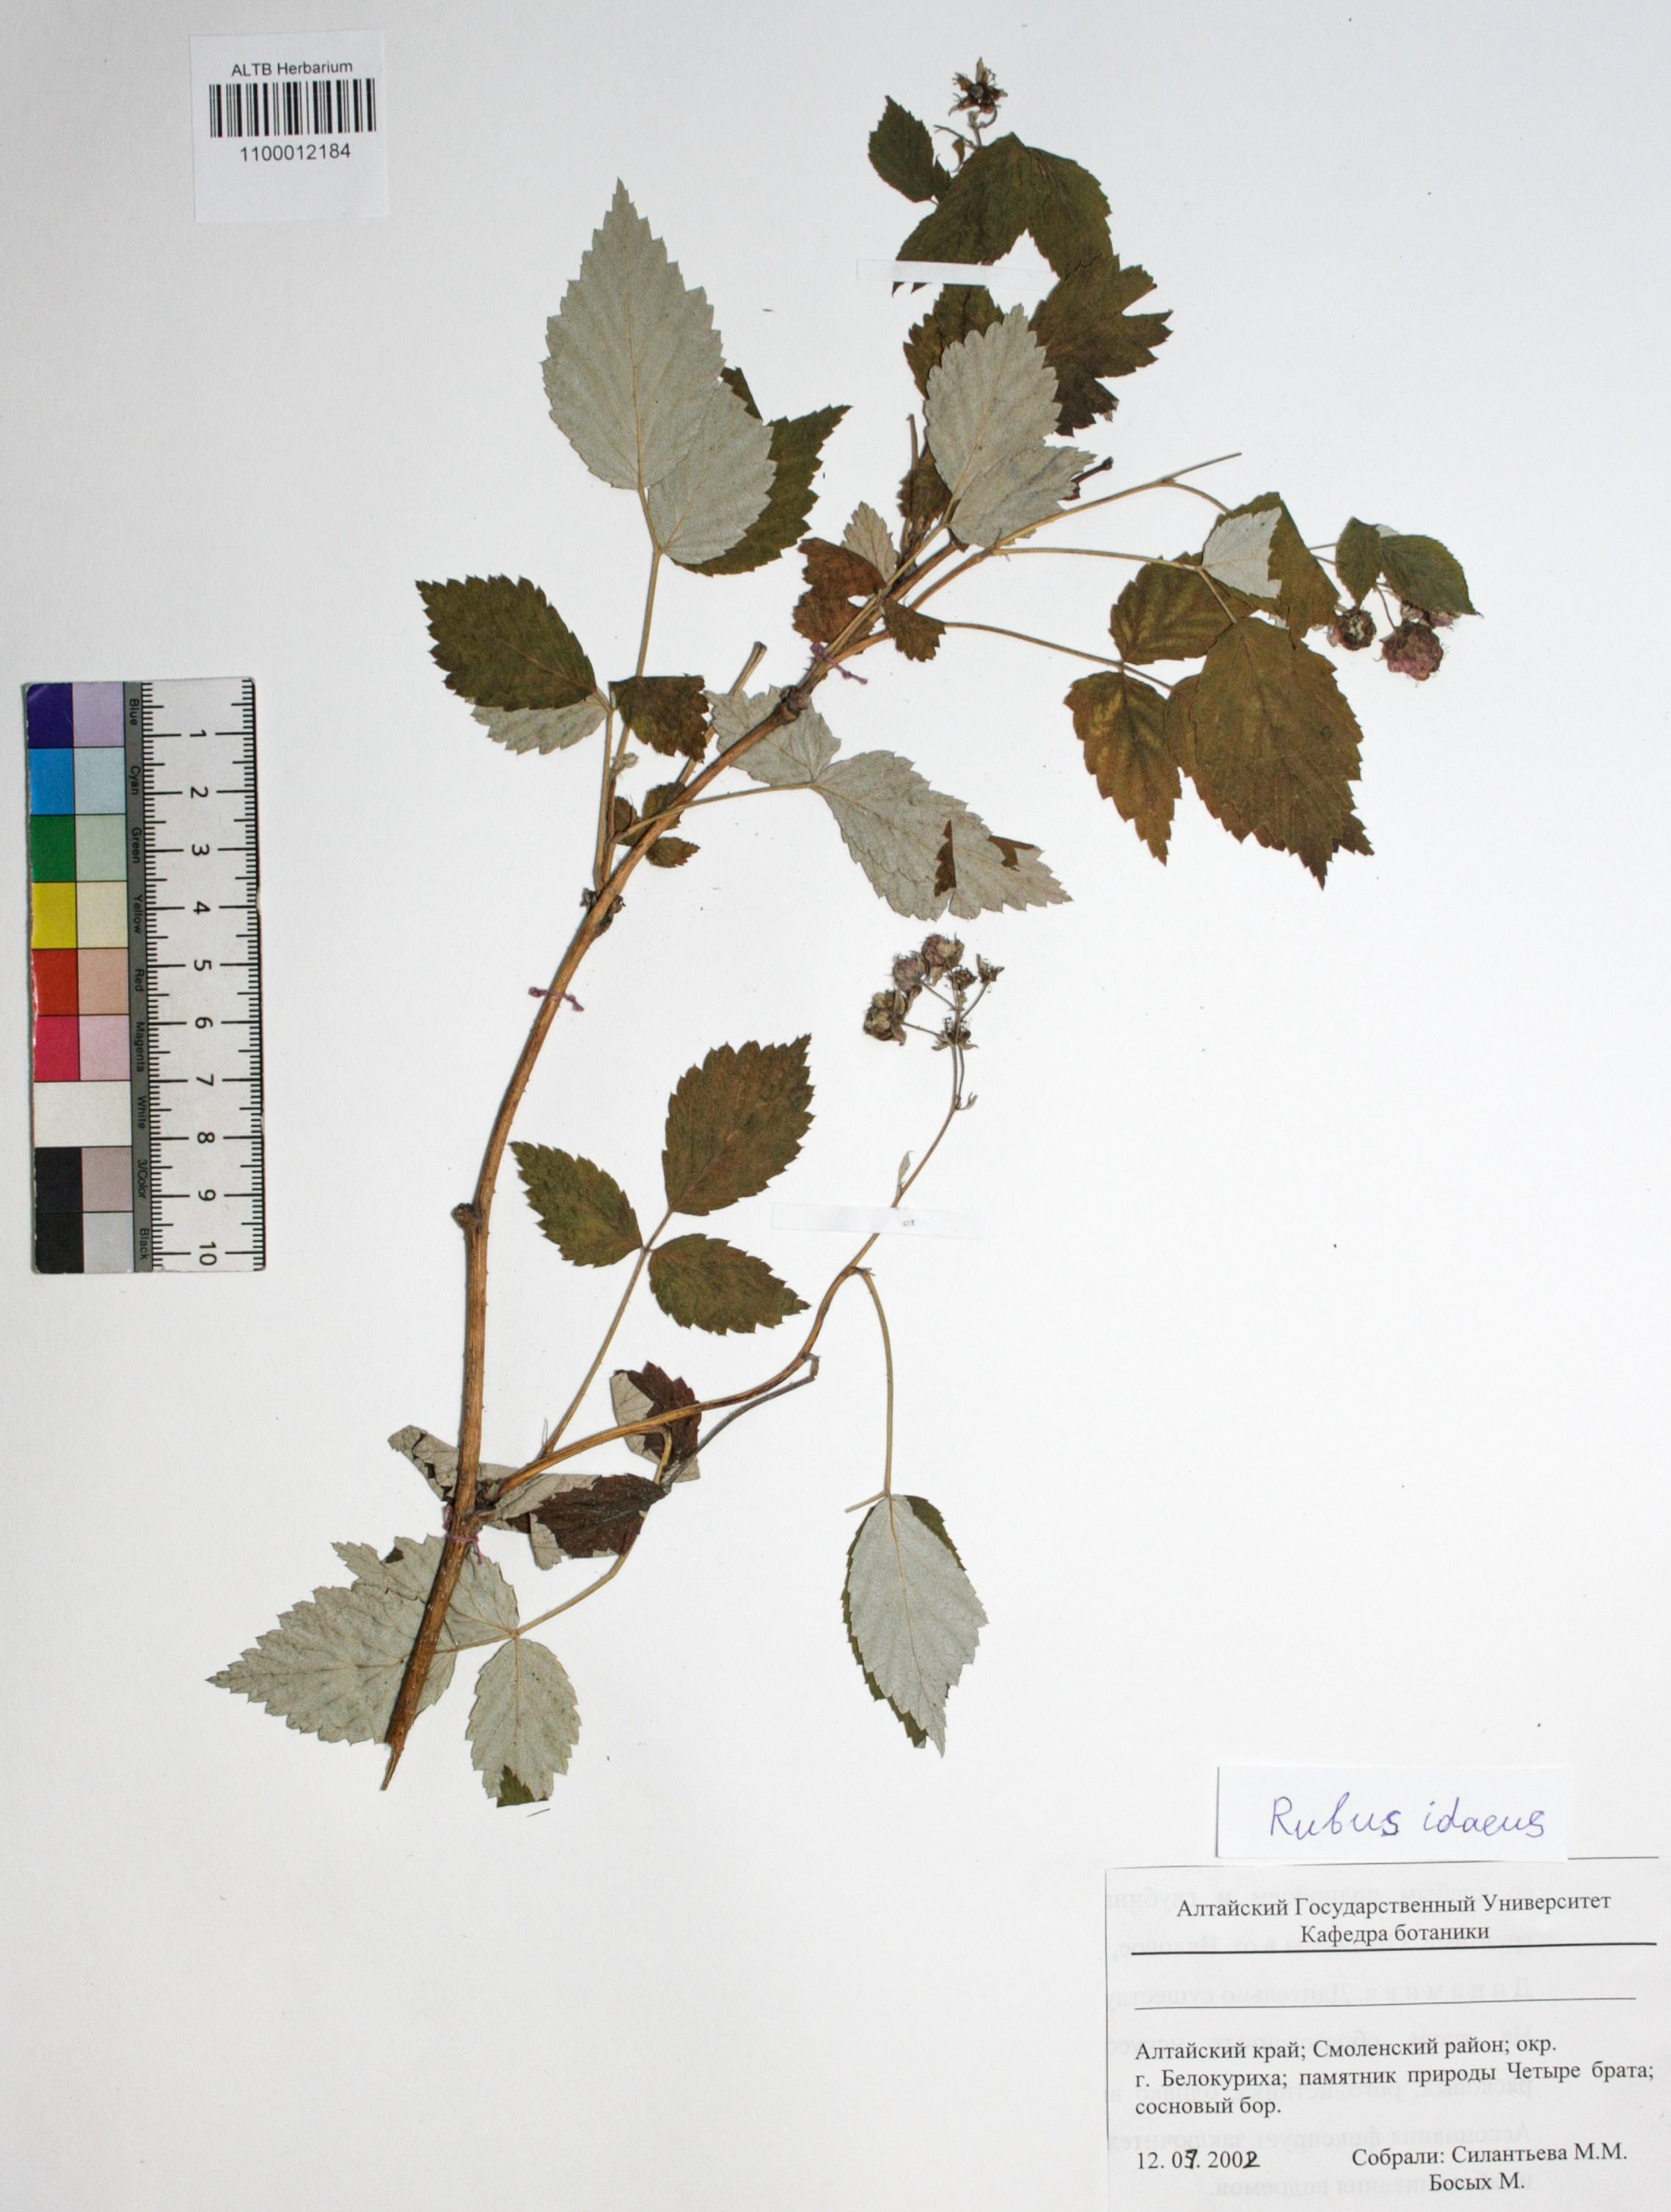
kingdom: Plantae
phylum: Tracheophyta
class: Magnoliopsida
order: Rosales
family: Rosaceae
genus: Rubus
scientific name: Rubus idaeus
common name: Raspberry
